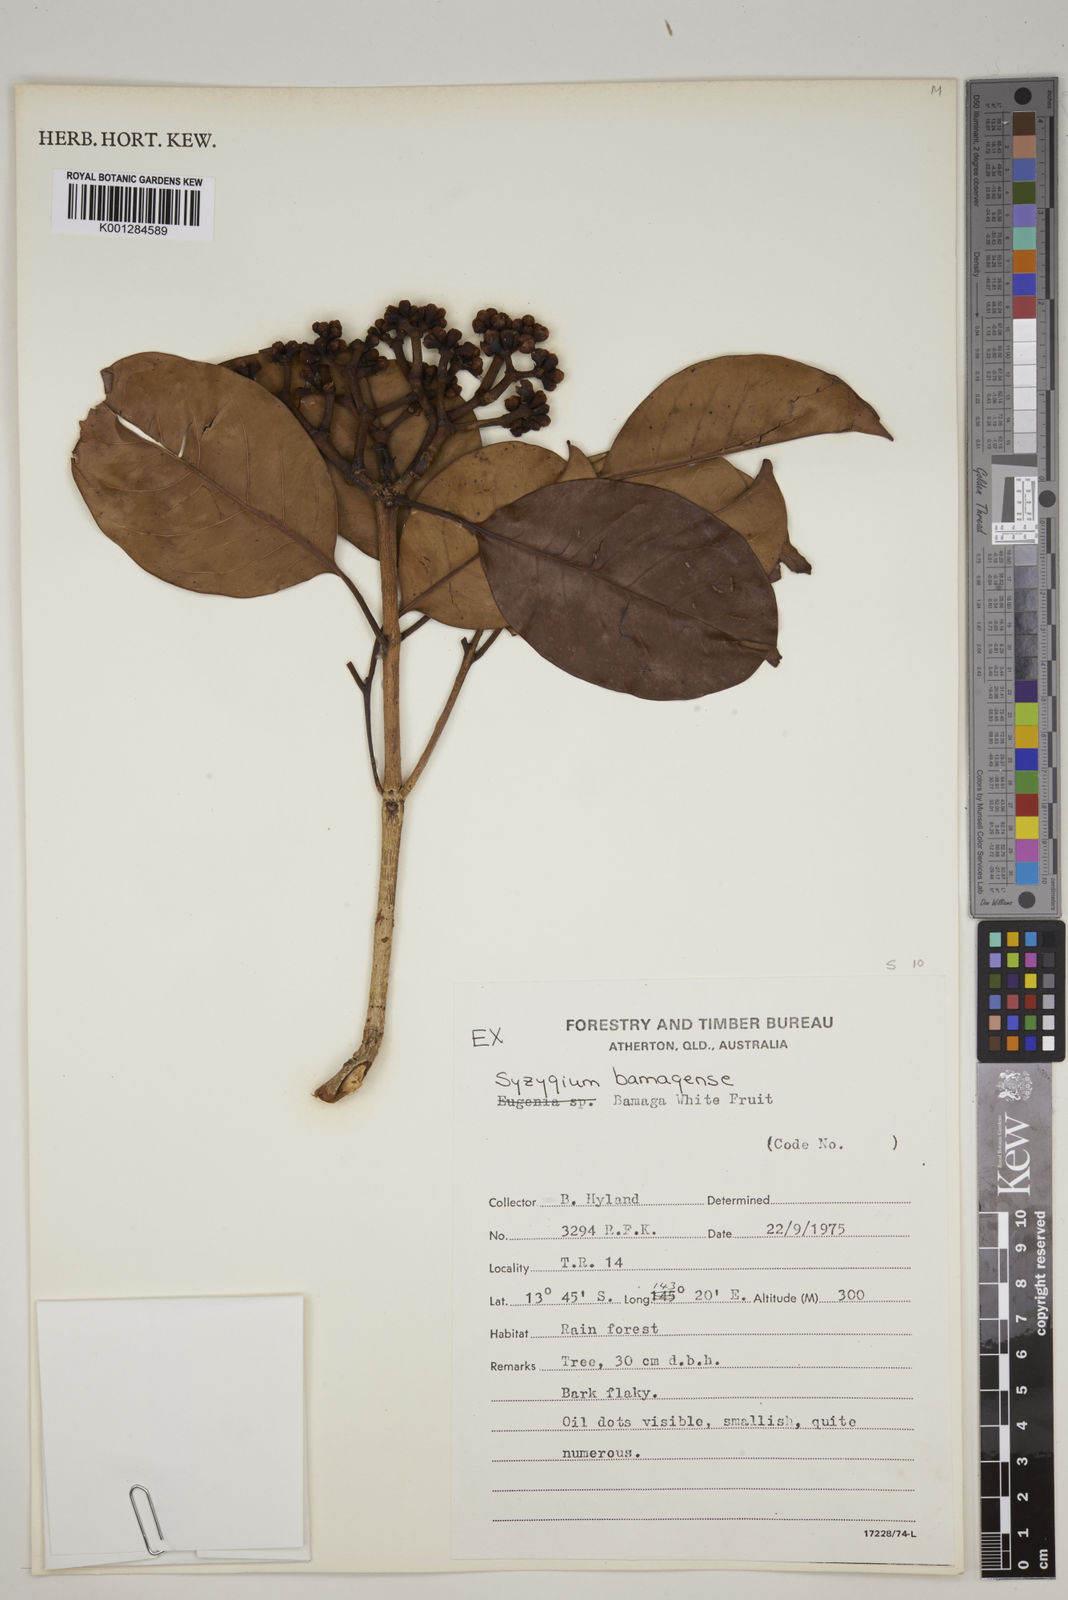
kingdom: Plantae
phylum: Tracheophyta
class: Magnoliopsida
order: Myrtales
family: Myrtaceae
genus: Syzygium
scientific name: Syzygium bamagense
